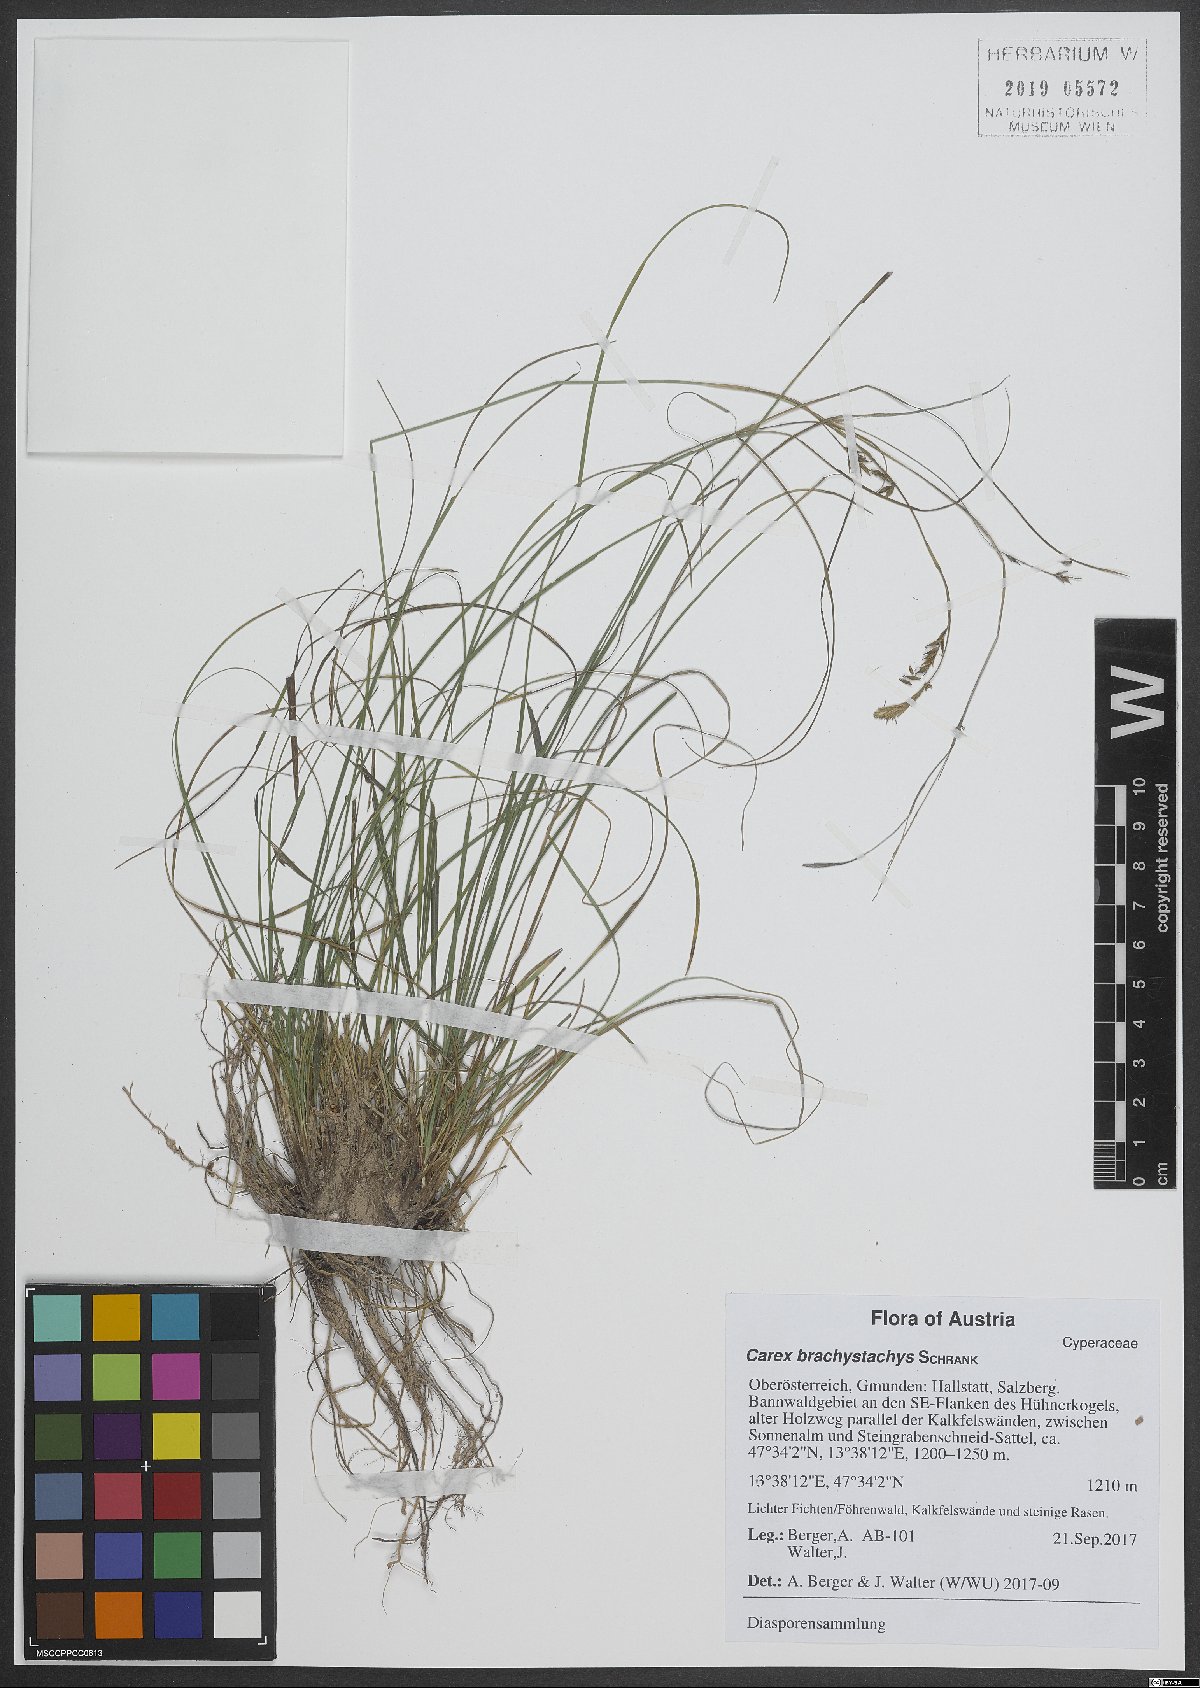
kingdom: Plantae
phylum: Tracheophyta
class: Liliopsida
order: Poales
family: Cyperaceae
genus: Carex
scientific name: Carex brachystachys
